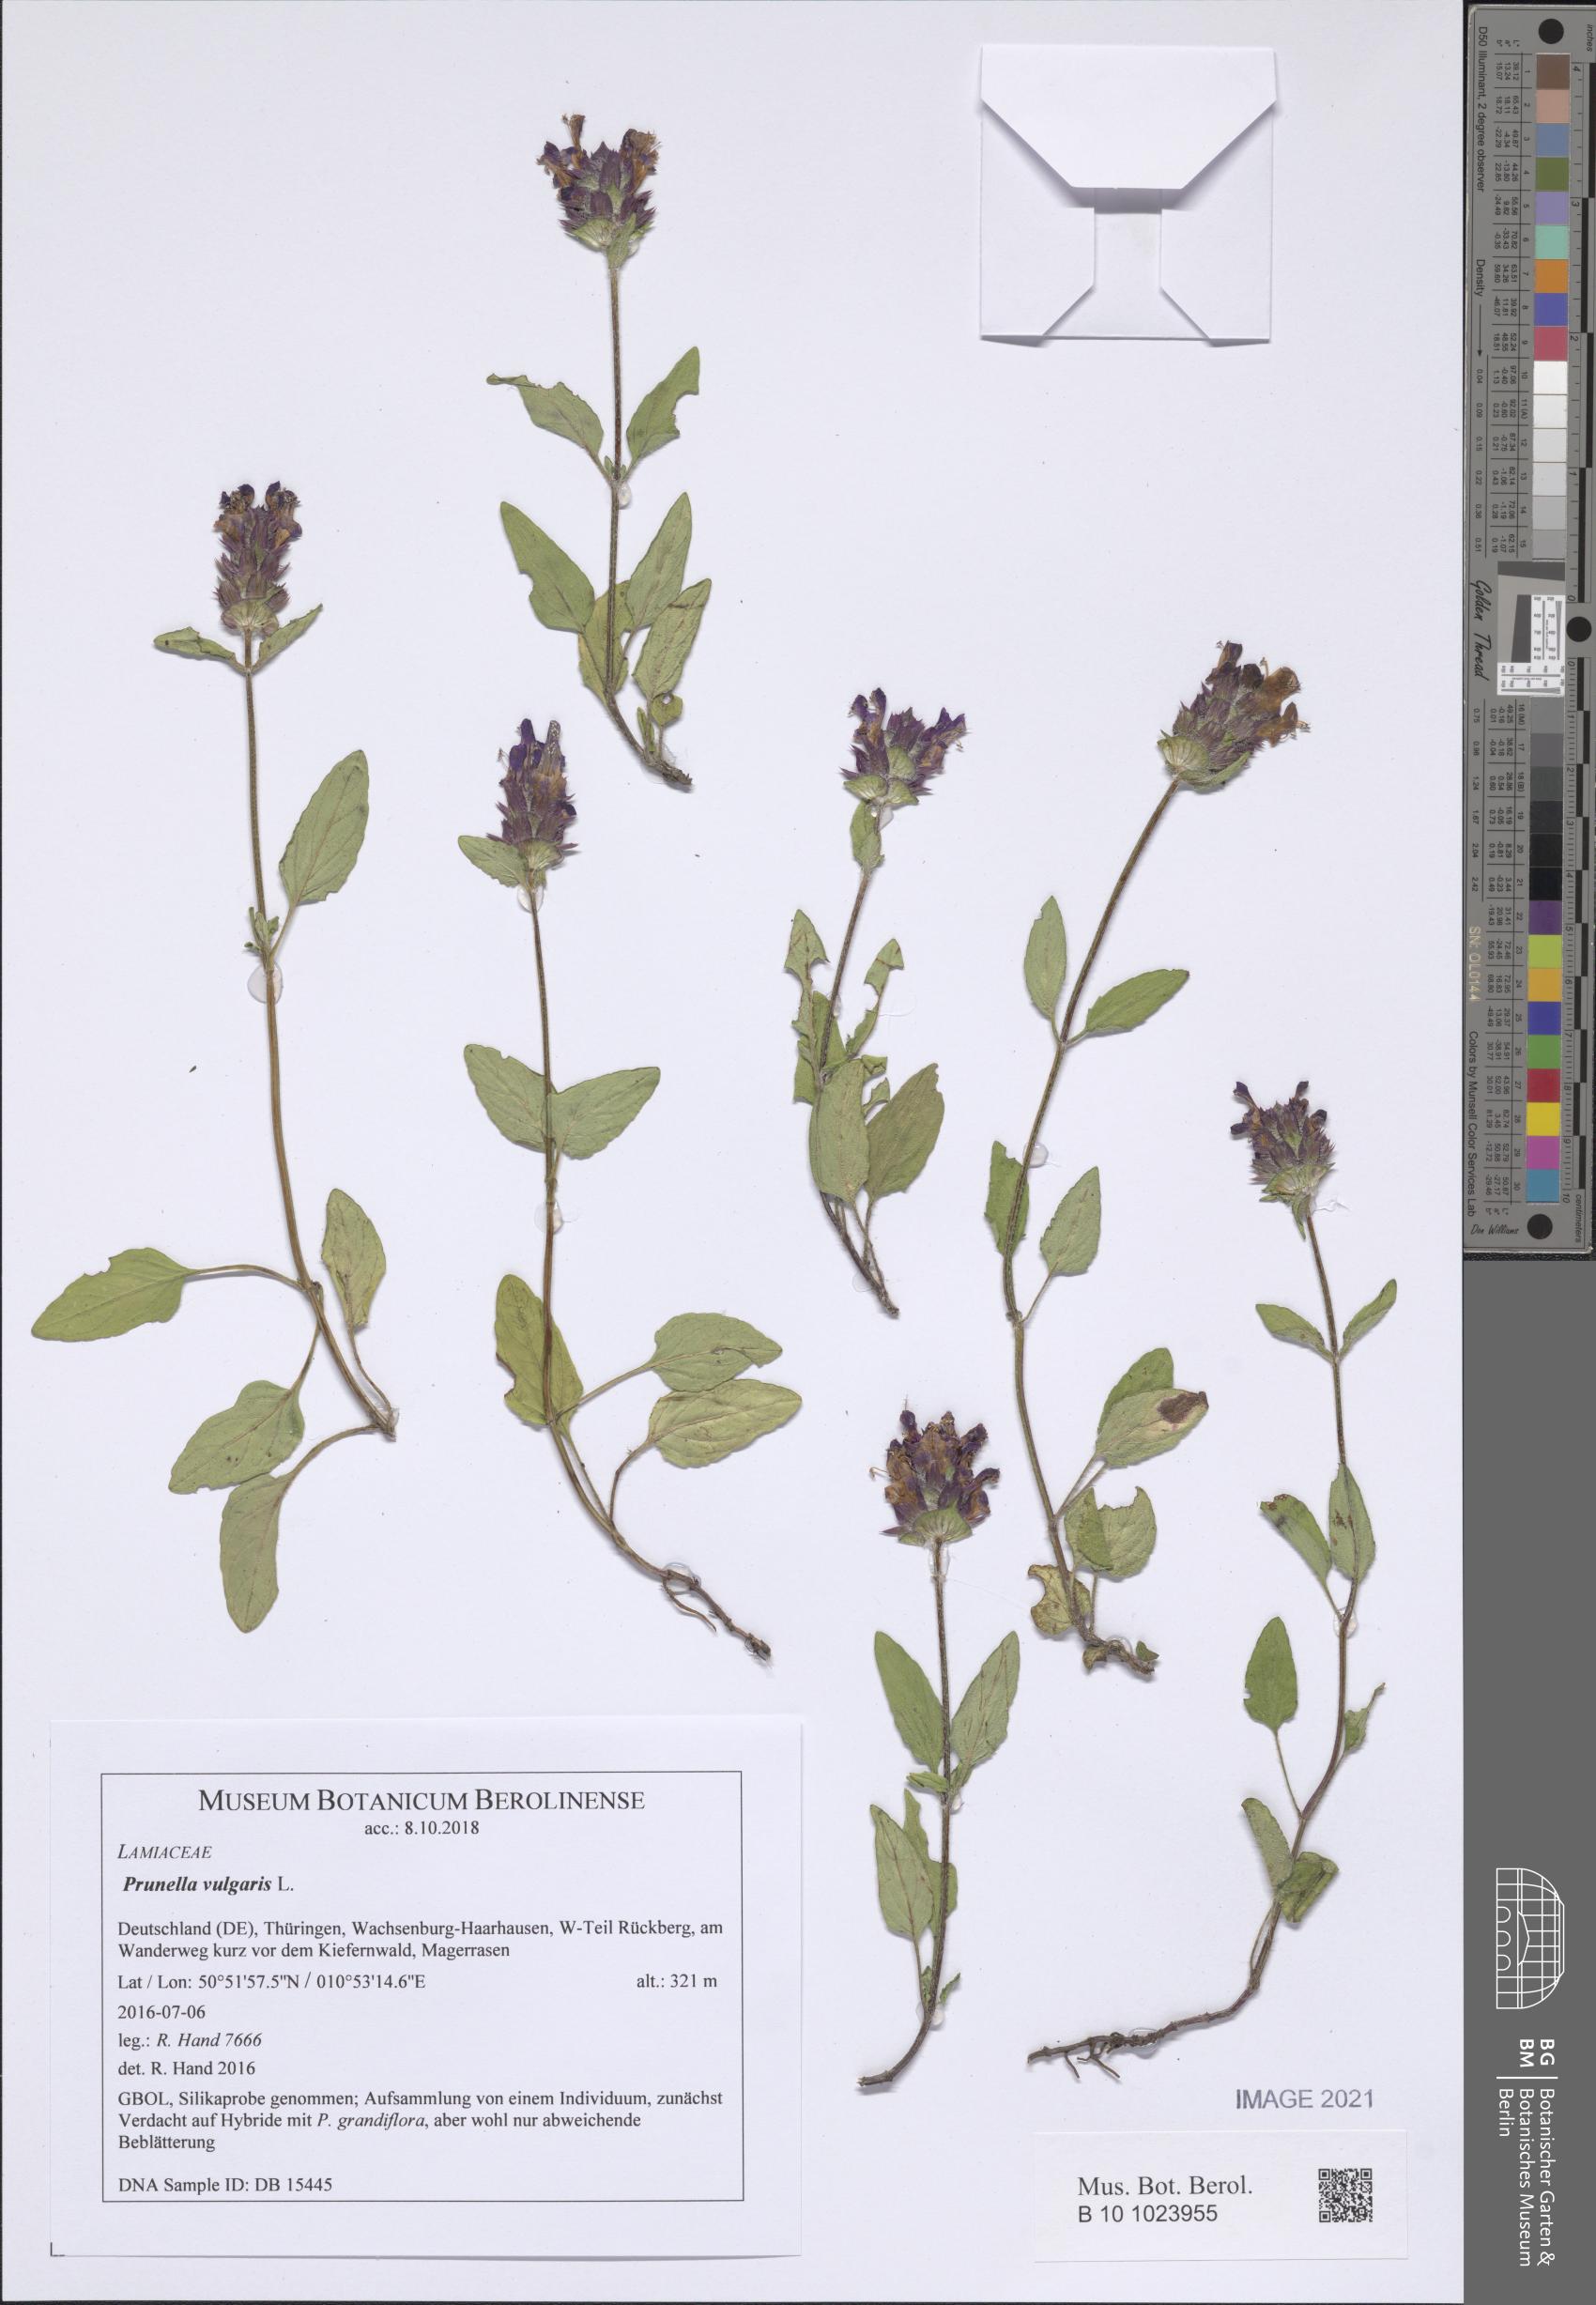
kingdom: Plantae
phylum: Tracheophyta
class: Magnoliopsida
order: Lamiales
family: Lamiaceae
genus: Prunella
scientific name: Prunella vulgaris
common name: Heal-all
